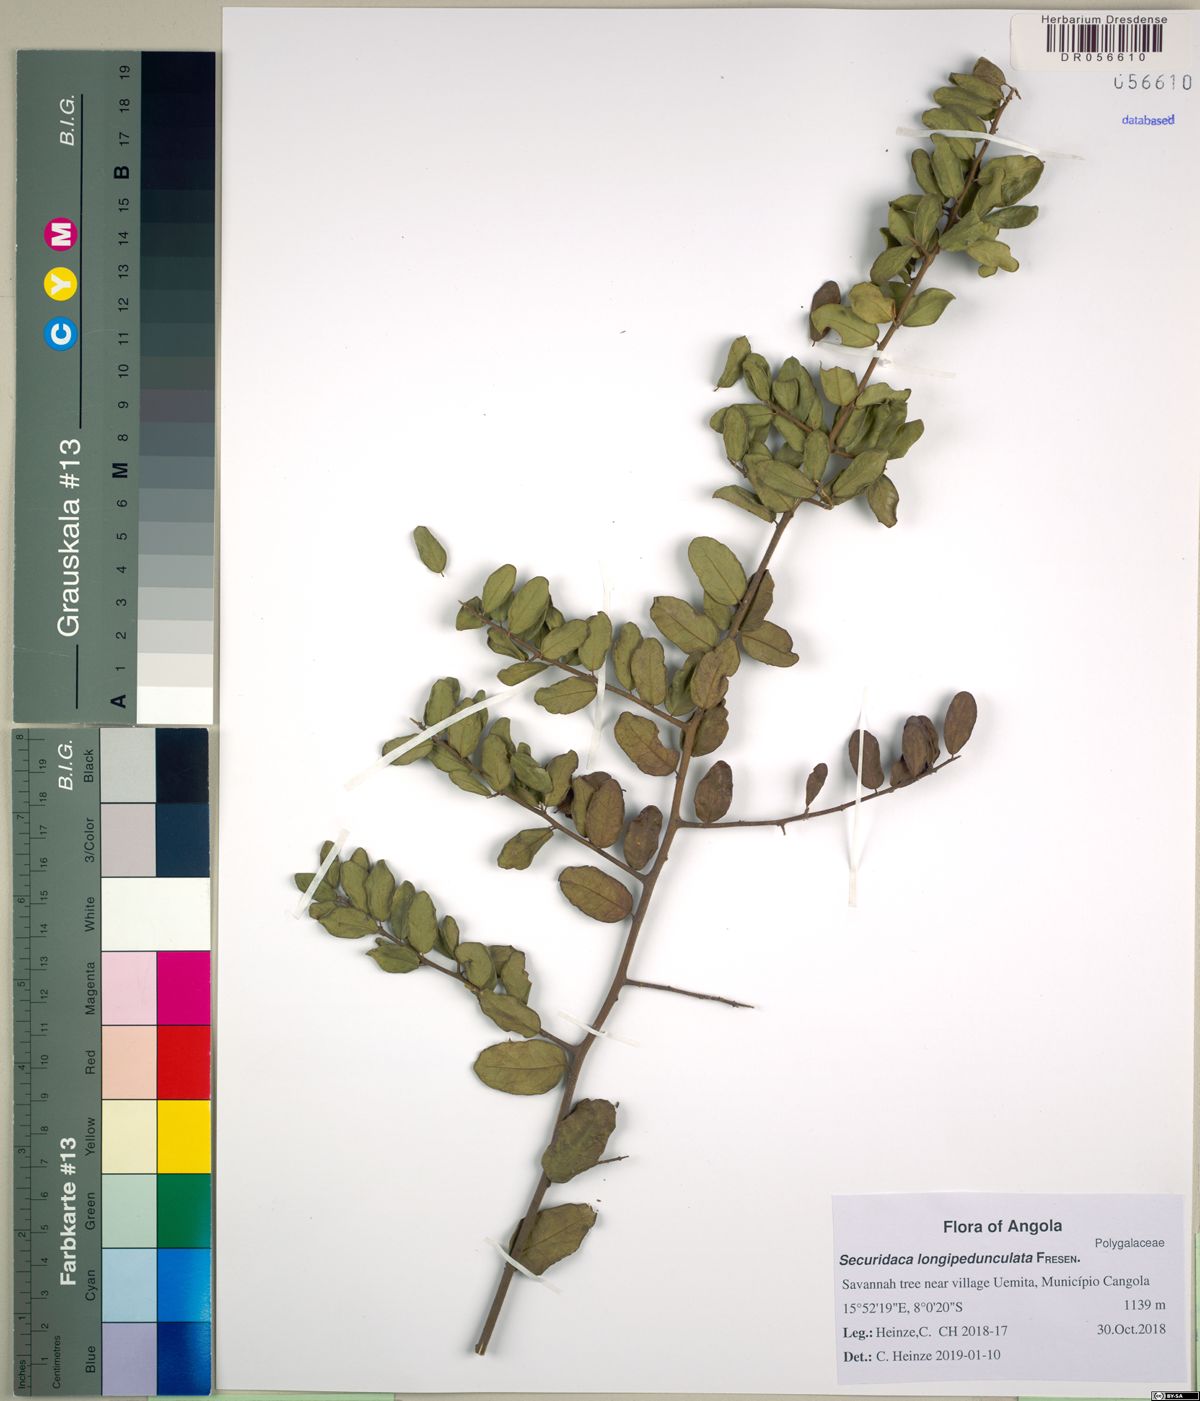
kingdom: Plantae
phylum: Tracheophyta
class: Magnoliopsida
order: Fabales
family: Polygalaceae
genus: Securidaca
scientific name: Securidaca longepedunculata
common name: Violet tree
